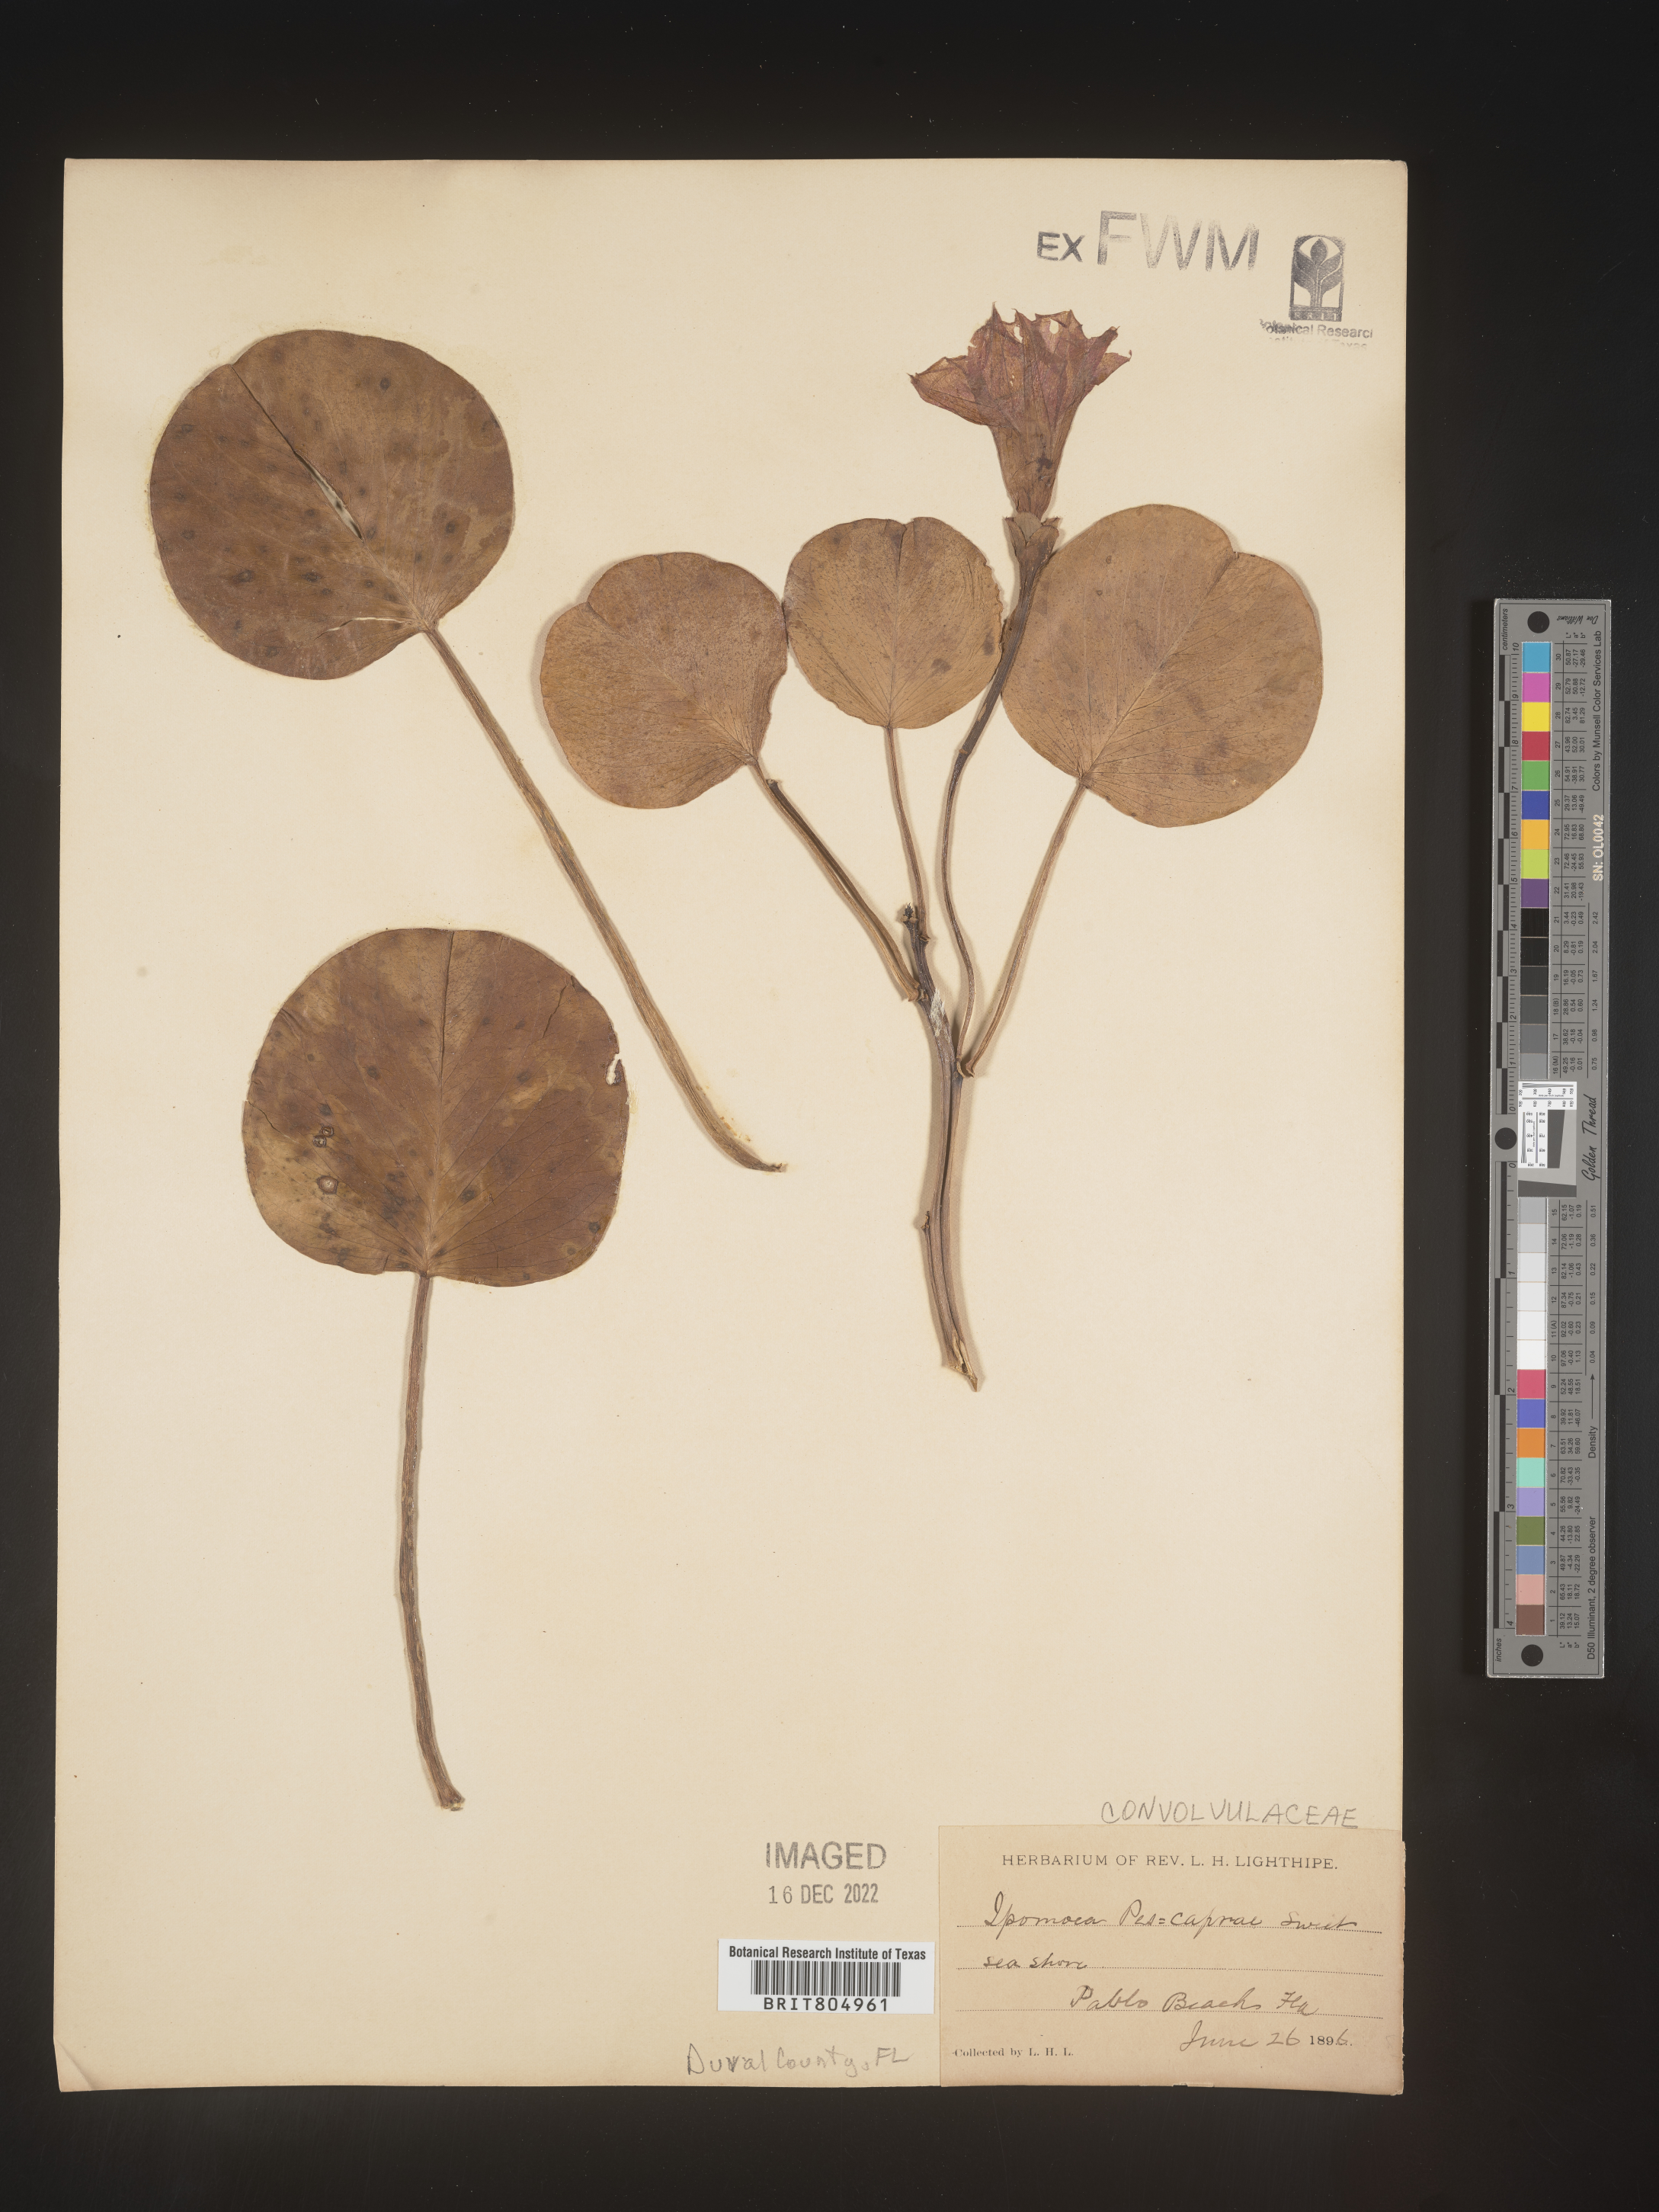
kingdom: Plantae
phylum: Tracheophyta
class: Magnoliopsida
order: Solanales
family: Convolvulaceae
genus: Ipomoea
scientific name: Ipomoea pes-caprae
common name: Beach morning glory
